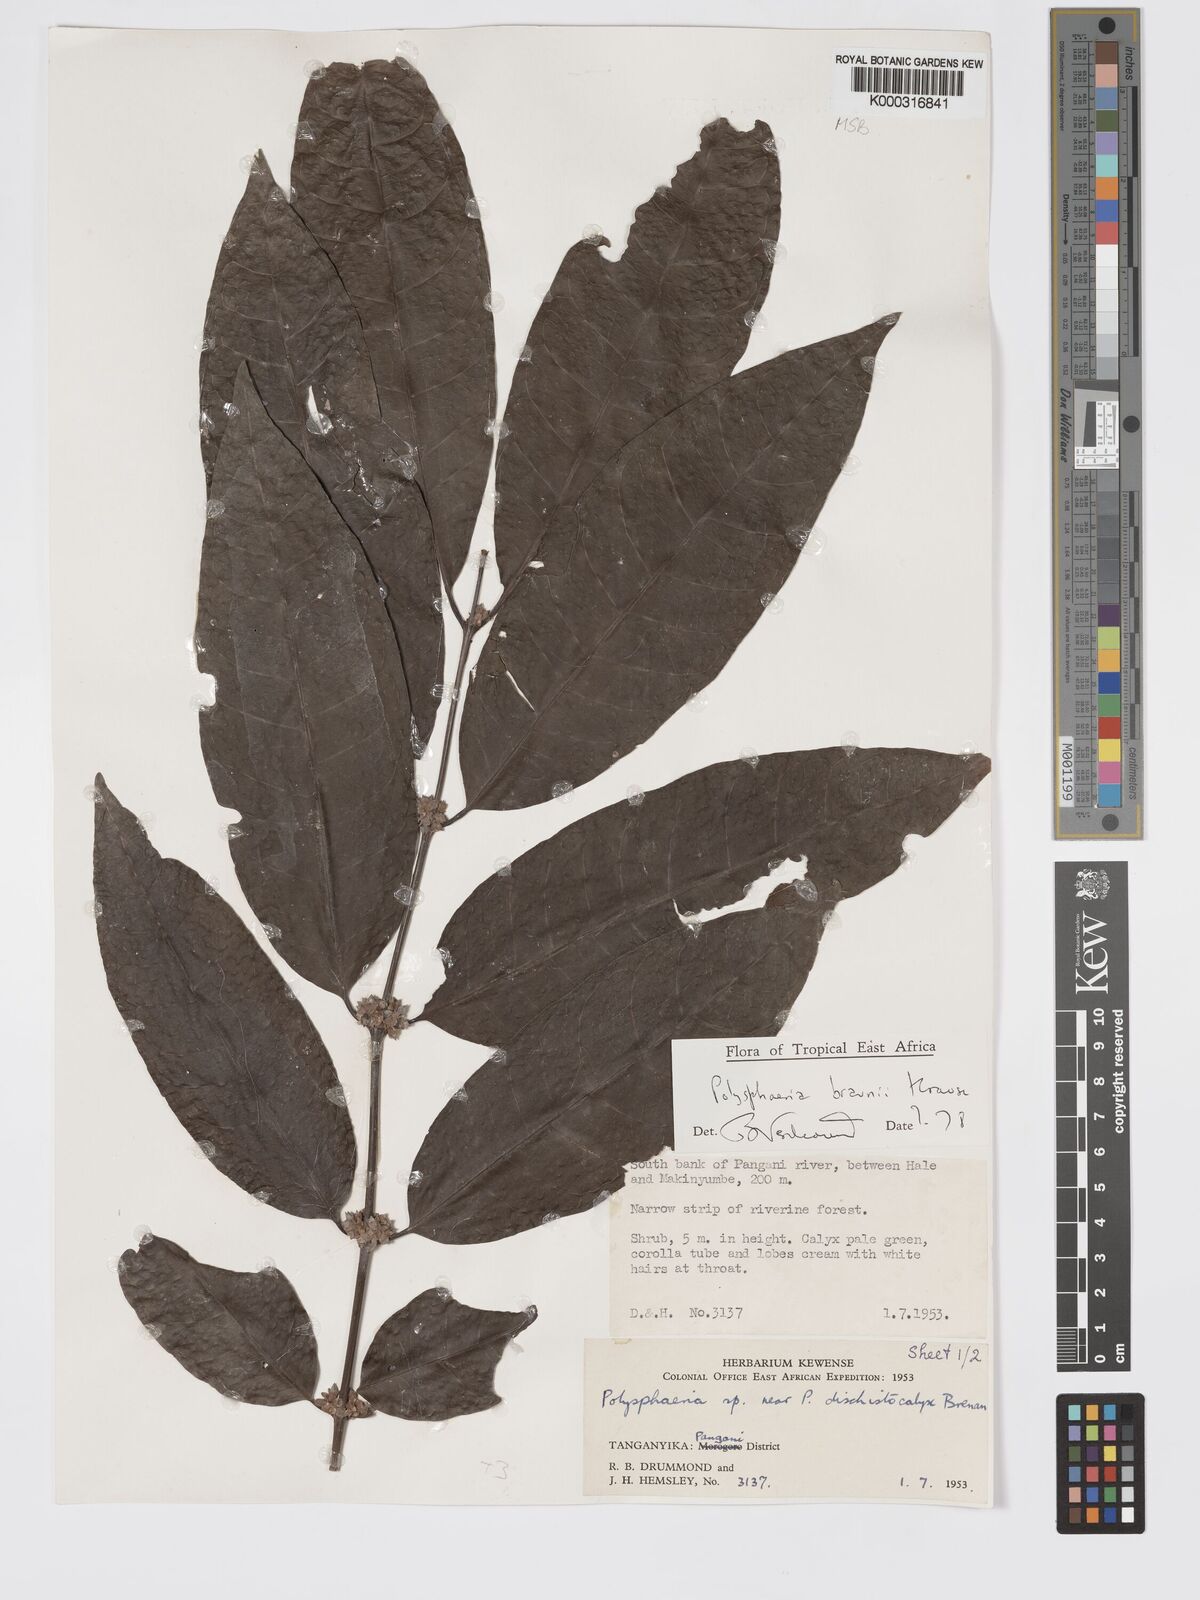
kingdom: Plantae
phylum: Tracheophyta
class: Magnoliopsida
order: Gentianales
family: Rubiaceae
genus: Polysphaeria
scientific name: Polysphaeria braunii
